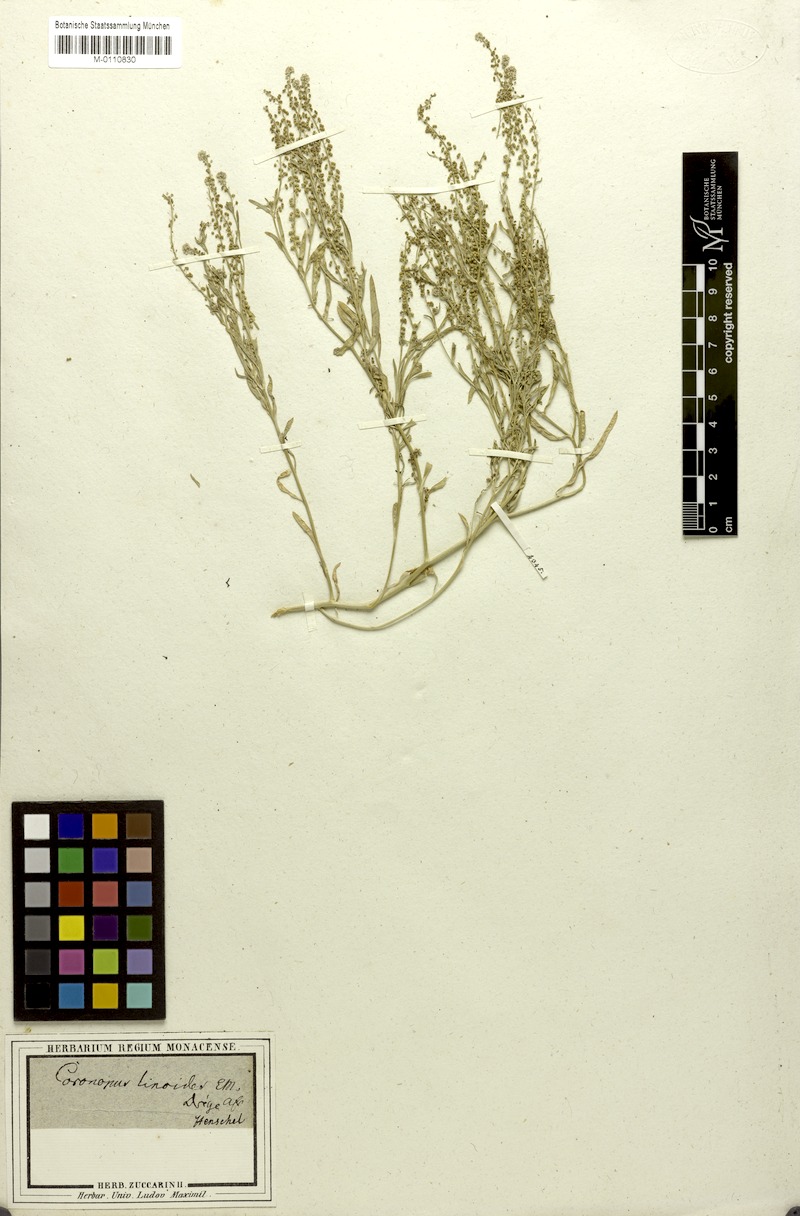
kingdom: Plantae
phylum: Tracheophyta
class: Magnoliopsida
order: Brassicales
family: Brassicaceae
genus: Lepidium
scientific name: Lepidium englerianum
